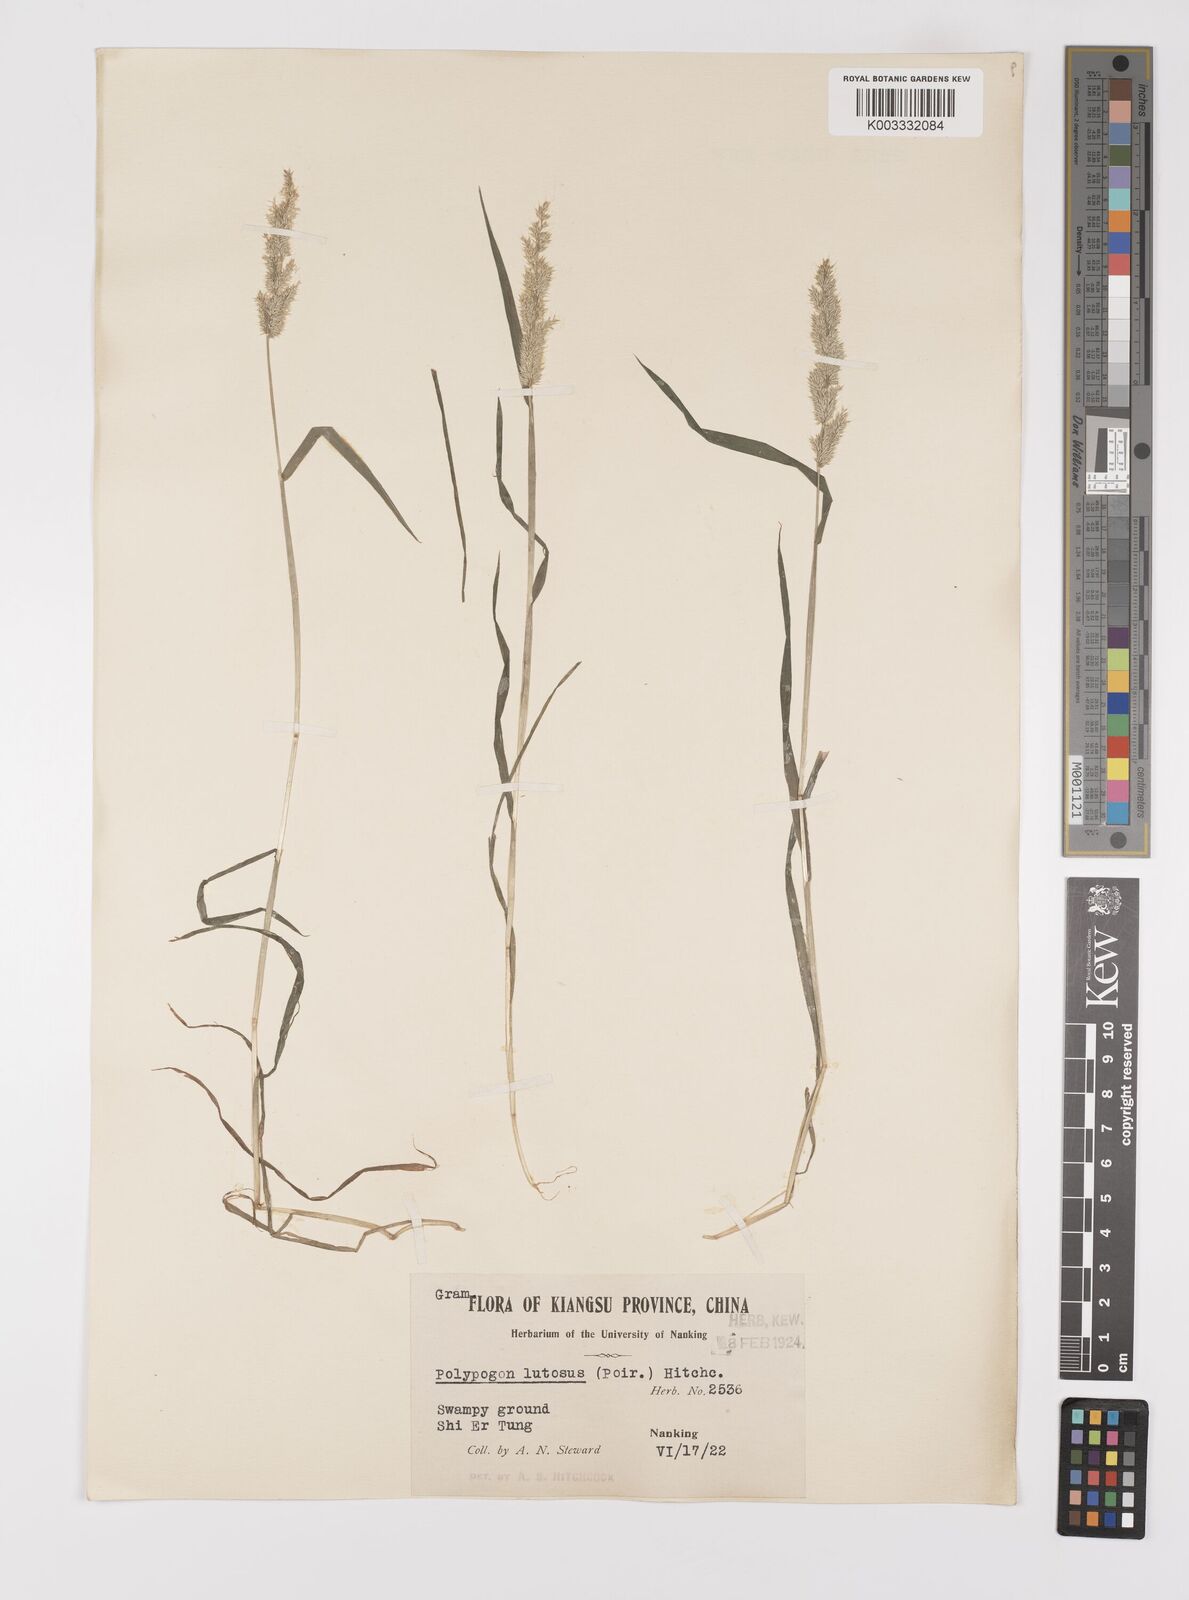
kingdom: Plantae
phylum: Tracheophyta
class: Liliopsida
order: Poales
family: Poaceae
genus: Polypogon
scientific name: Polypogon fugax
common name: Asia minor bluegrass
